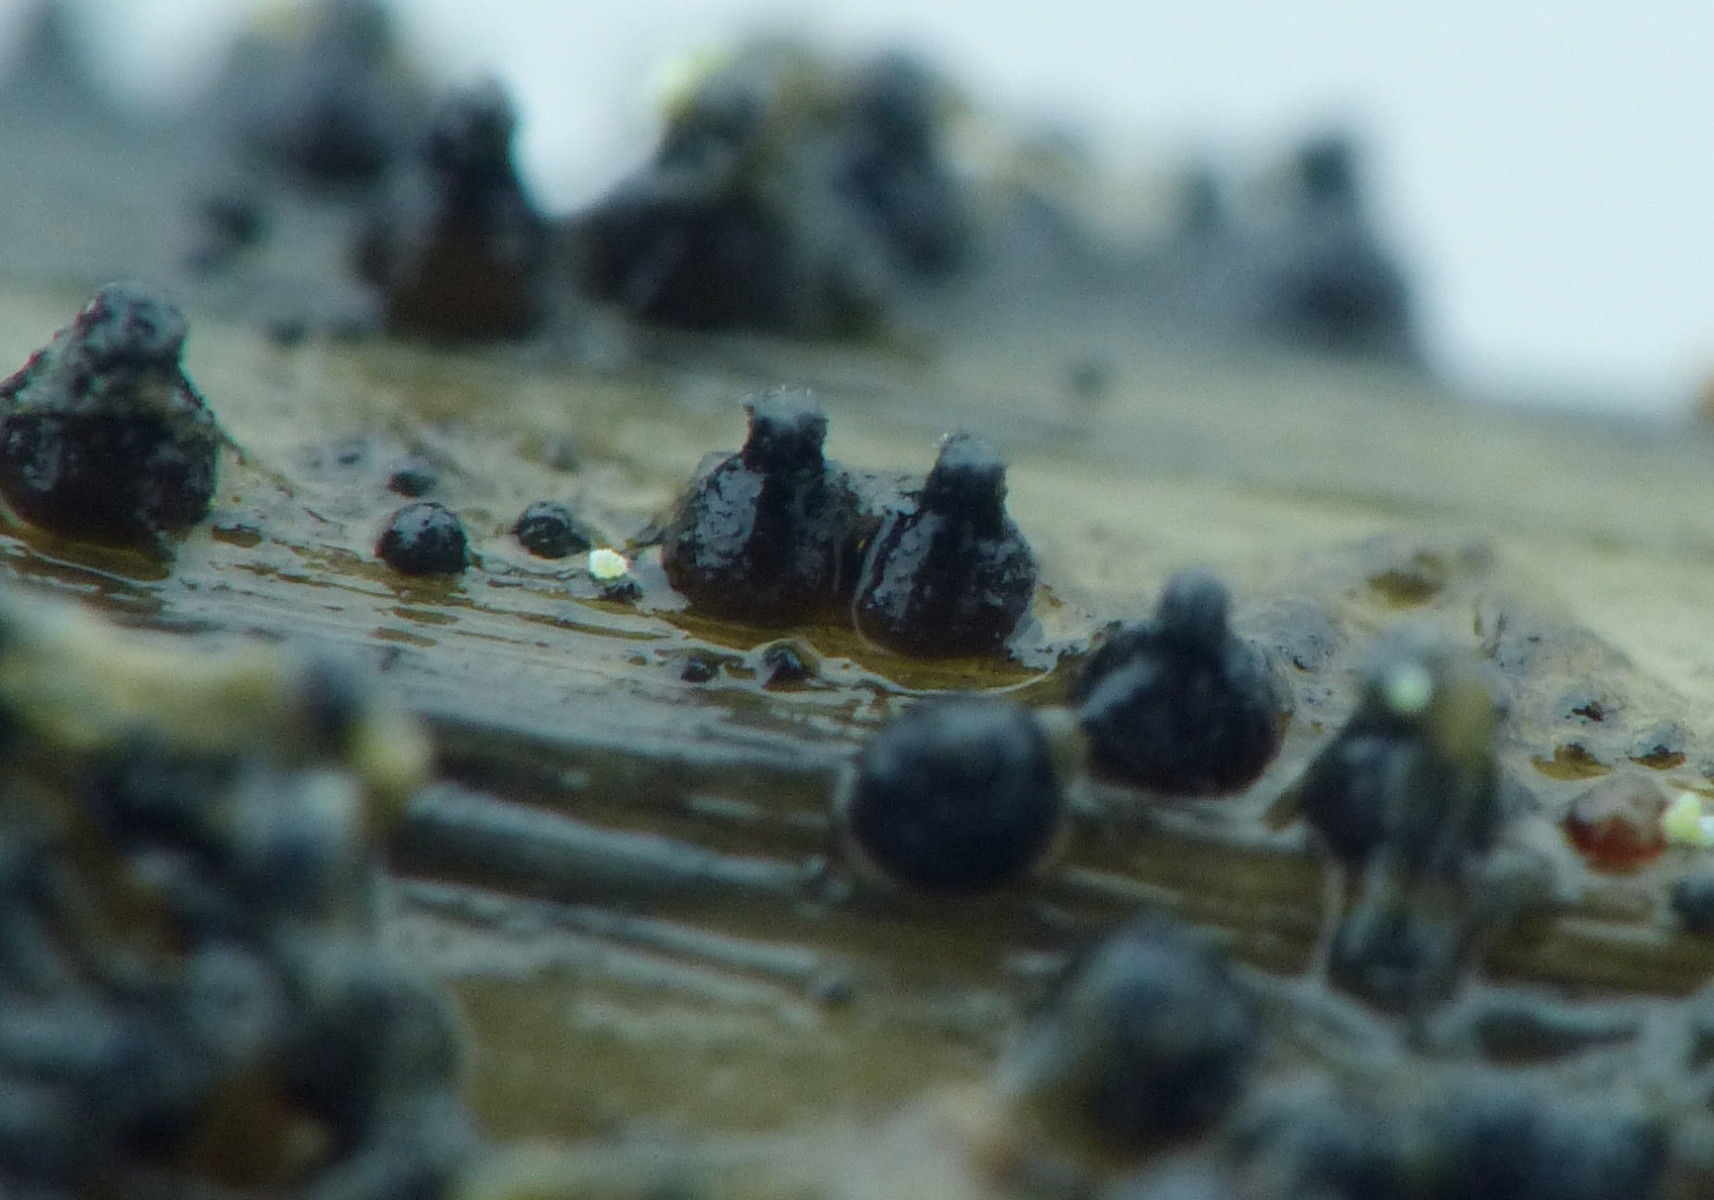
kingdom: Fungi
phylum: Ascomycota
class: Dothideomycetes
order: Pleosporales
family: Leptosphaeriaceae
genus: Leptosphaeria
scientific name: Leptosphaeria
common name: kulkegle
